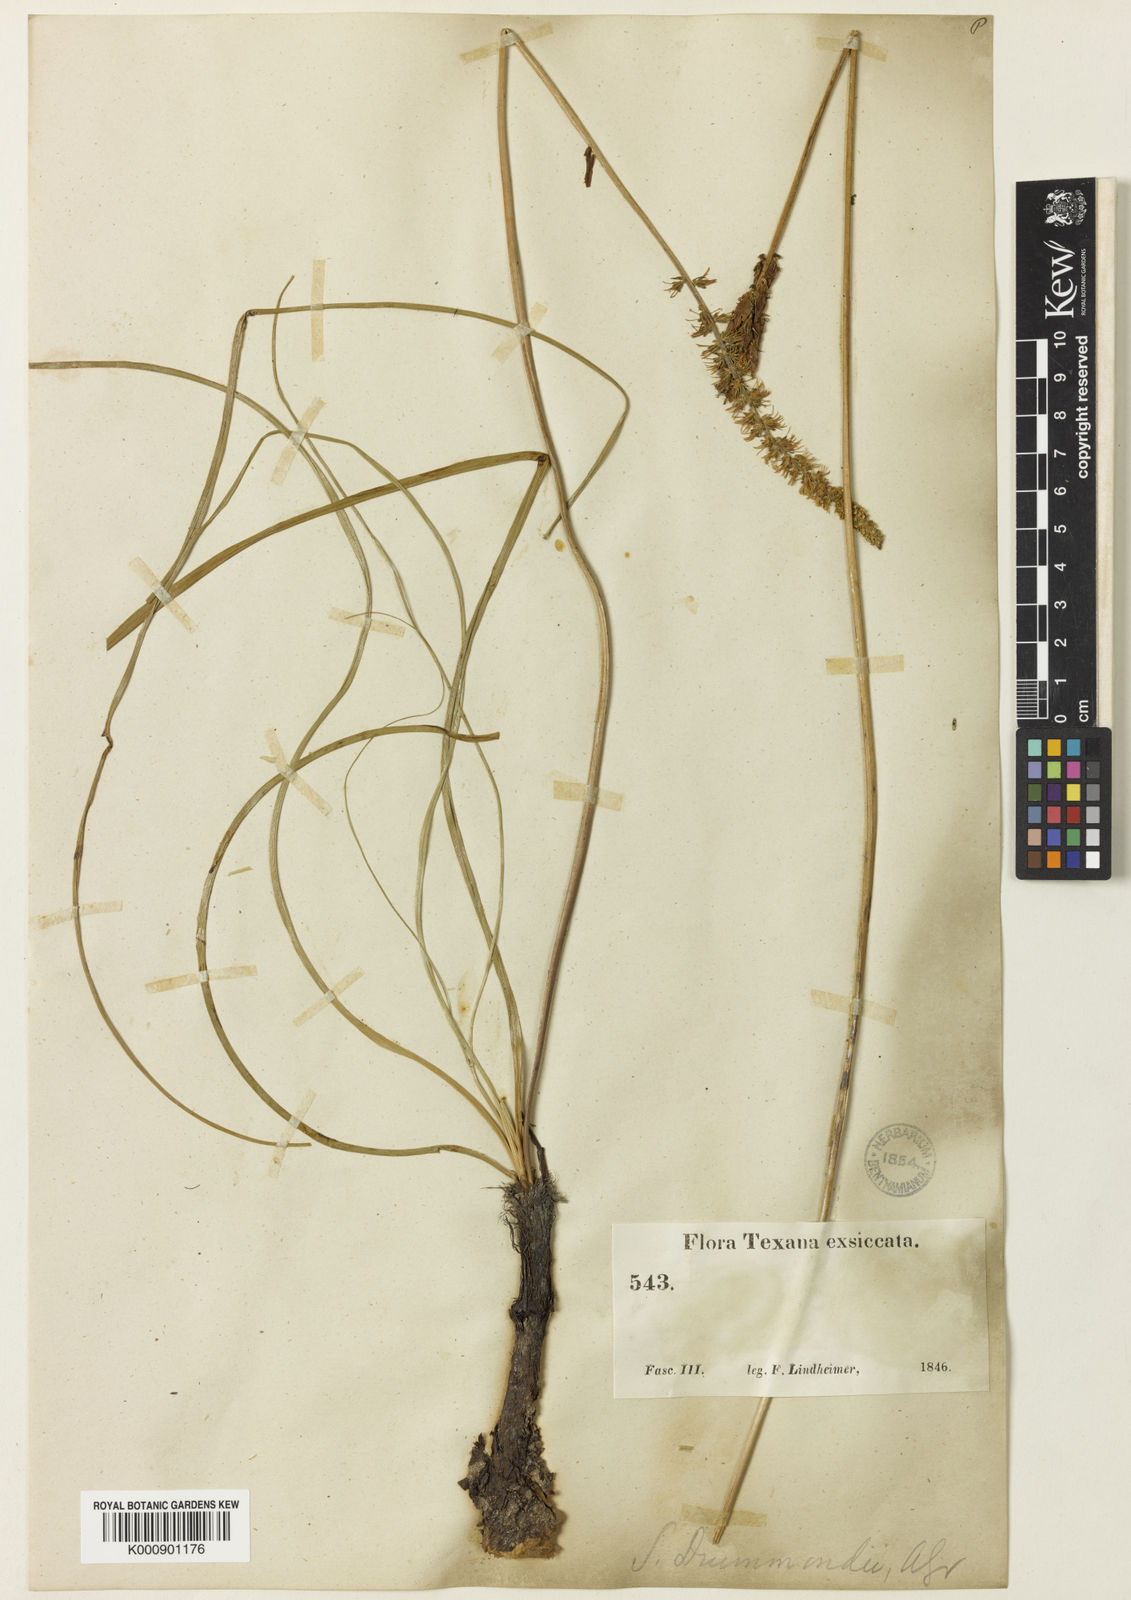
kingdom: Plantae
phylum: Tracheophyta
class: Liliopsida
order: Liliales
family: Melanthiaceae
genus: Schoenocaulon
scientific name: Schoenocaulon texanum
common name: Texas feather-shank
